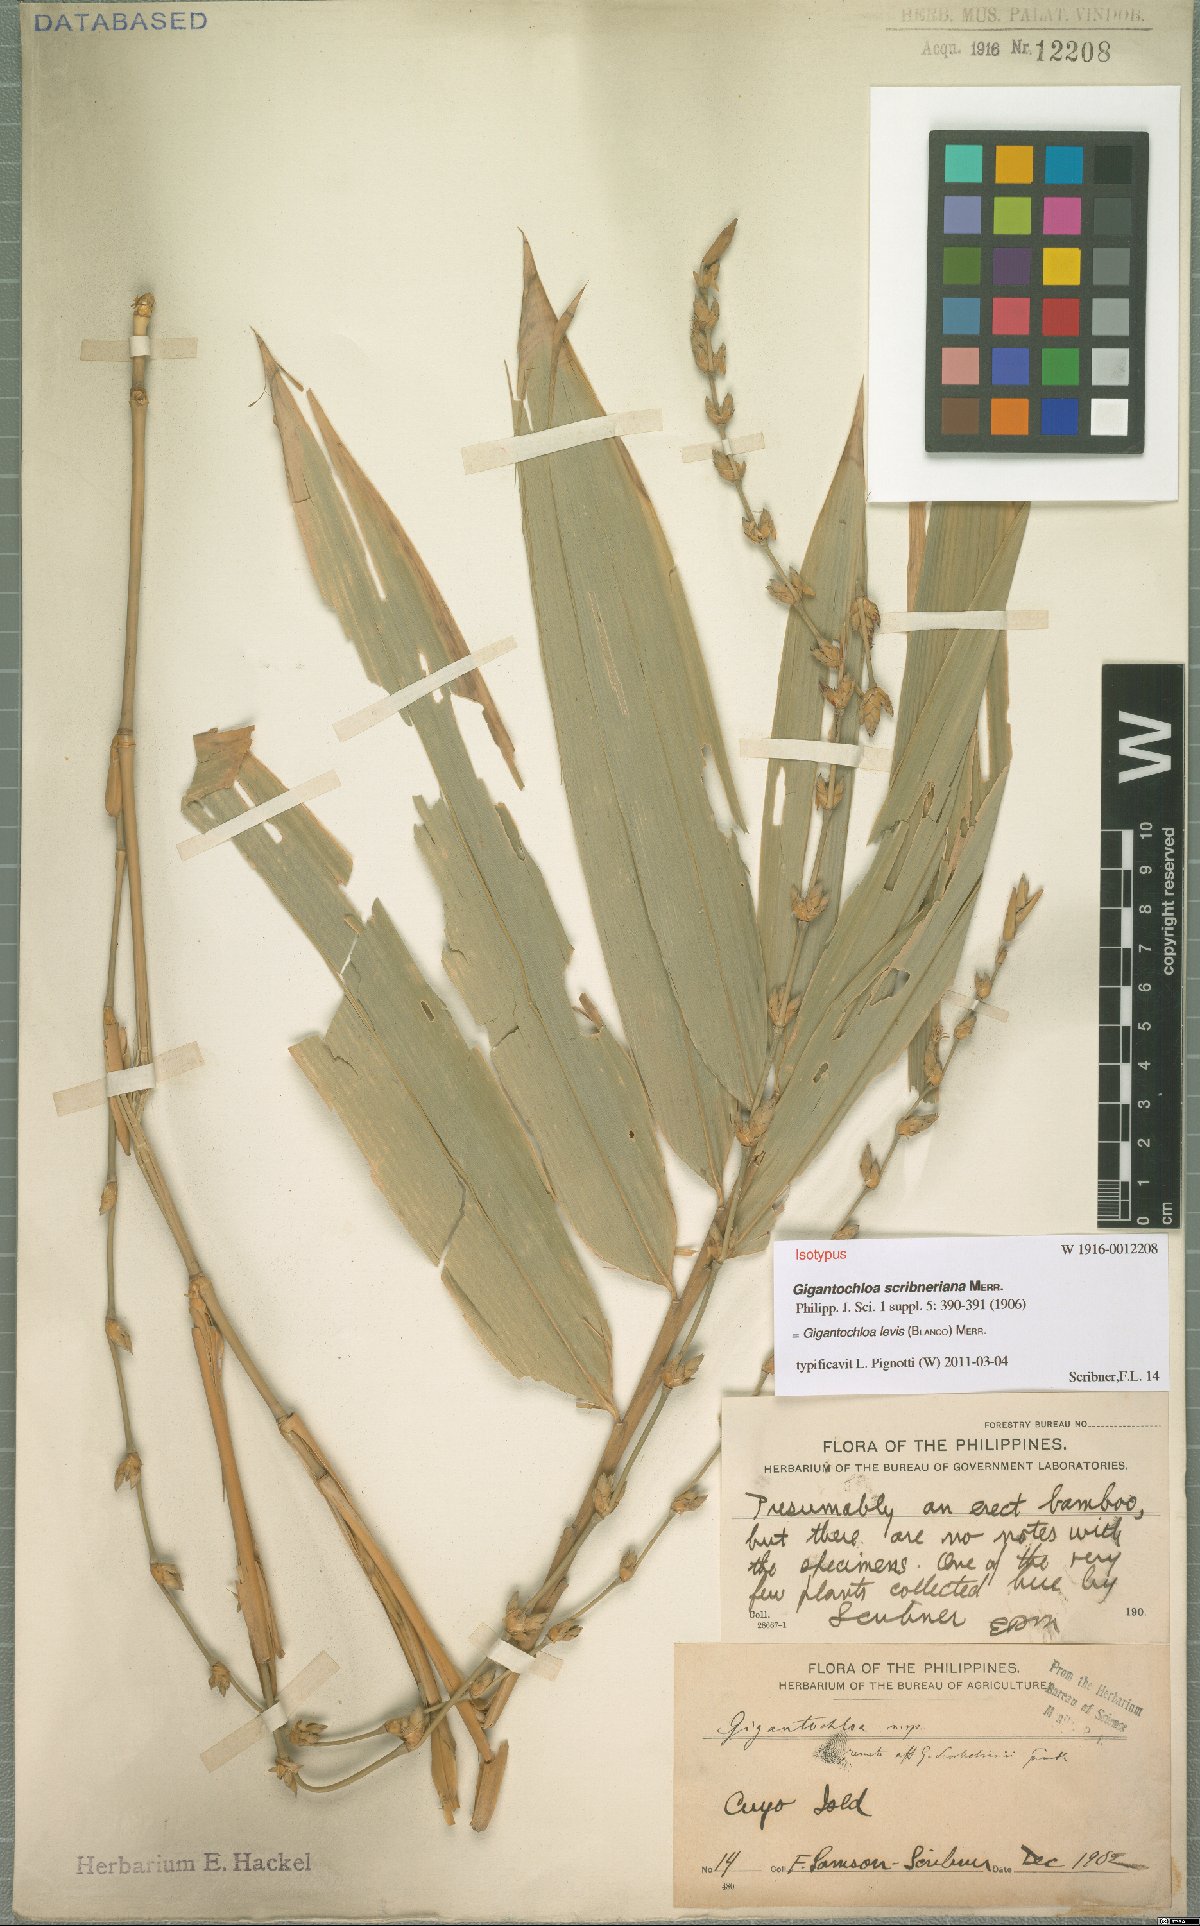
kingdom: Plantae
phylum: Tracheophyta
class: Liliopsida
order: Poales
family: Poaceae
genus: Gigantochloa
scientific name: Gigantochloa levis
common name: Smooth-shoot gigantochloa
